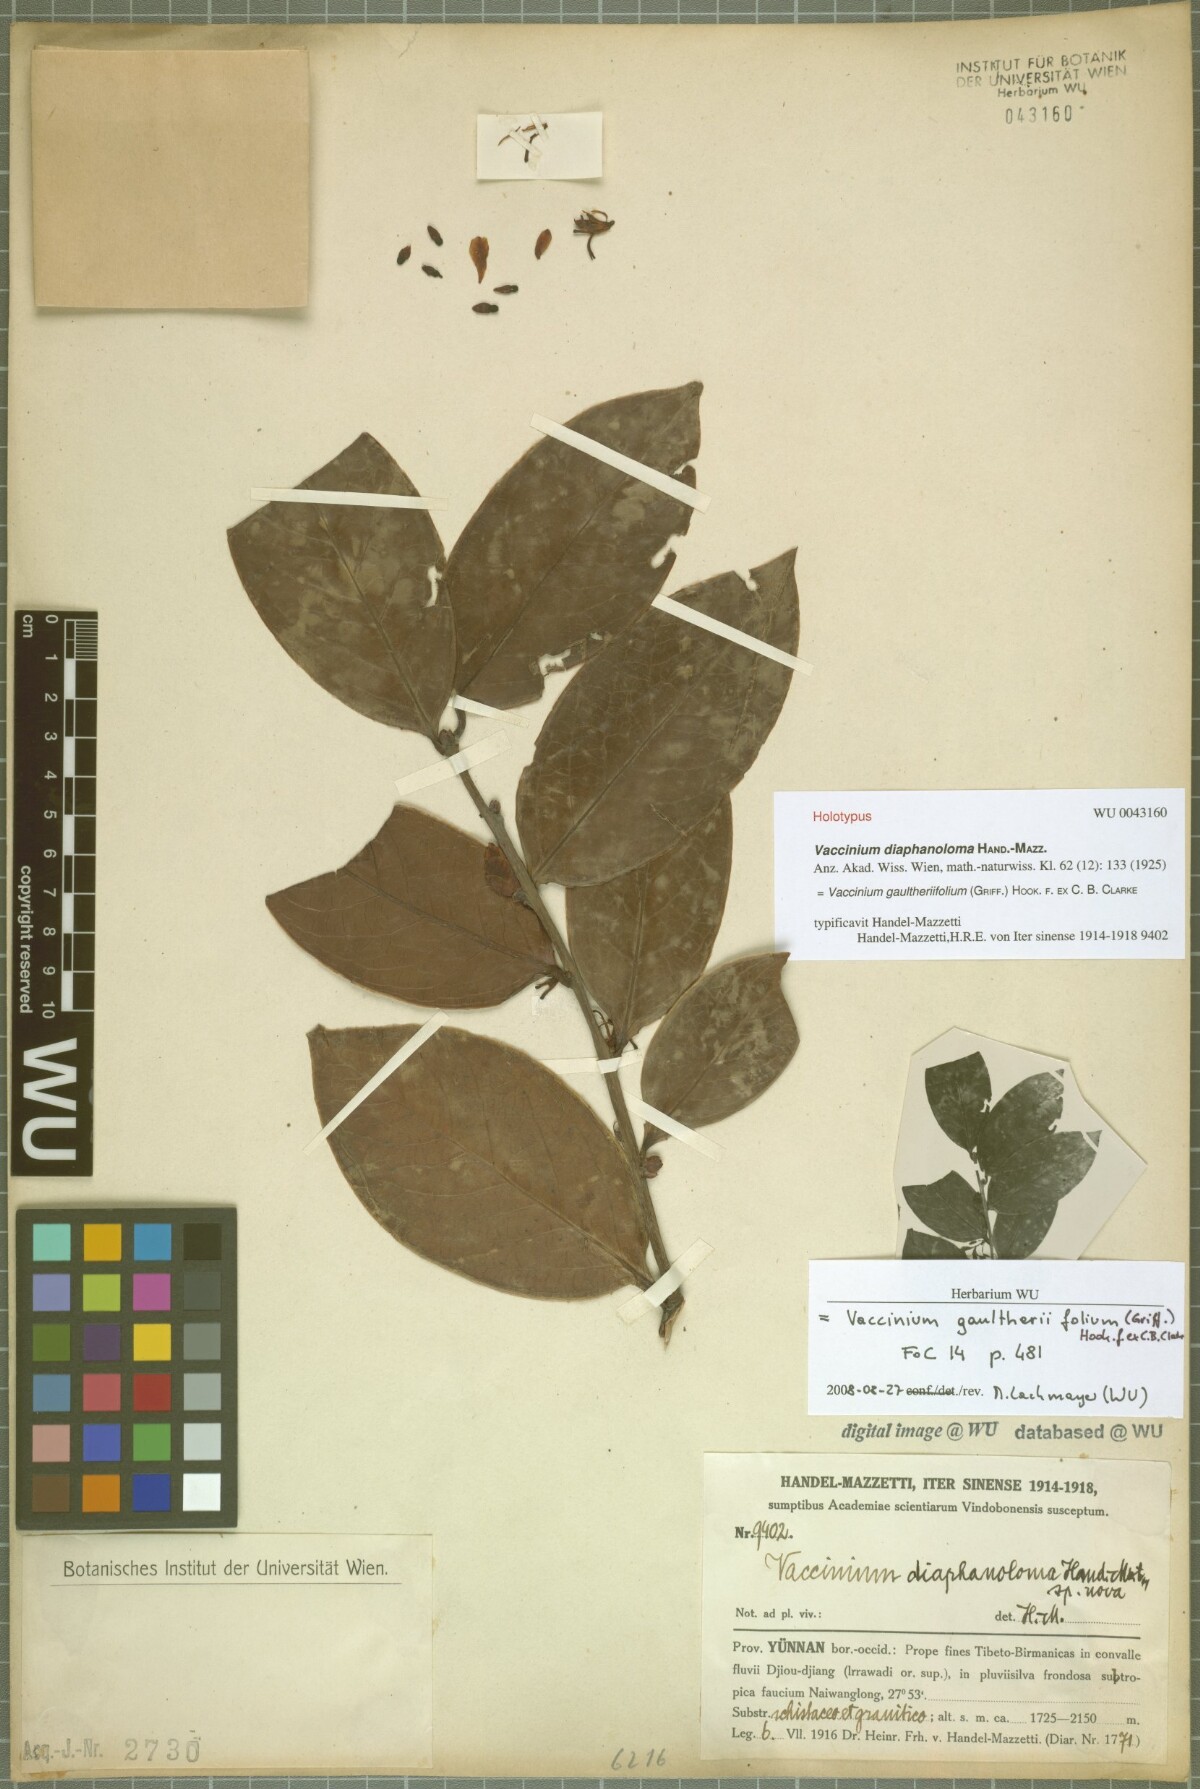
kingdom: Plantae
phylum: Tracheophyta
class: Magnoliopsida
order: Ericales
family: Ericaceae
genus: Vaccinium
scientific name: Vaccinium gaultheriifolium
